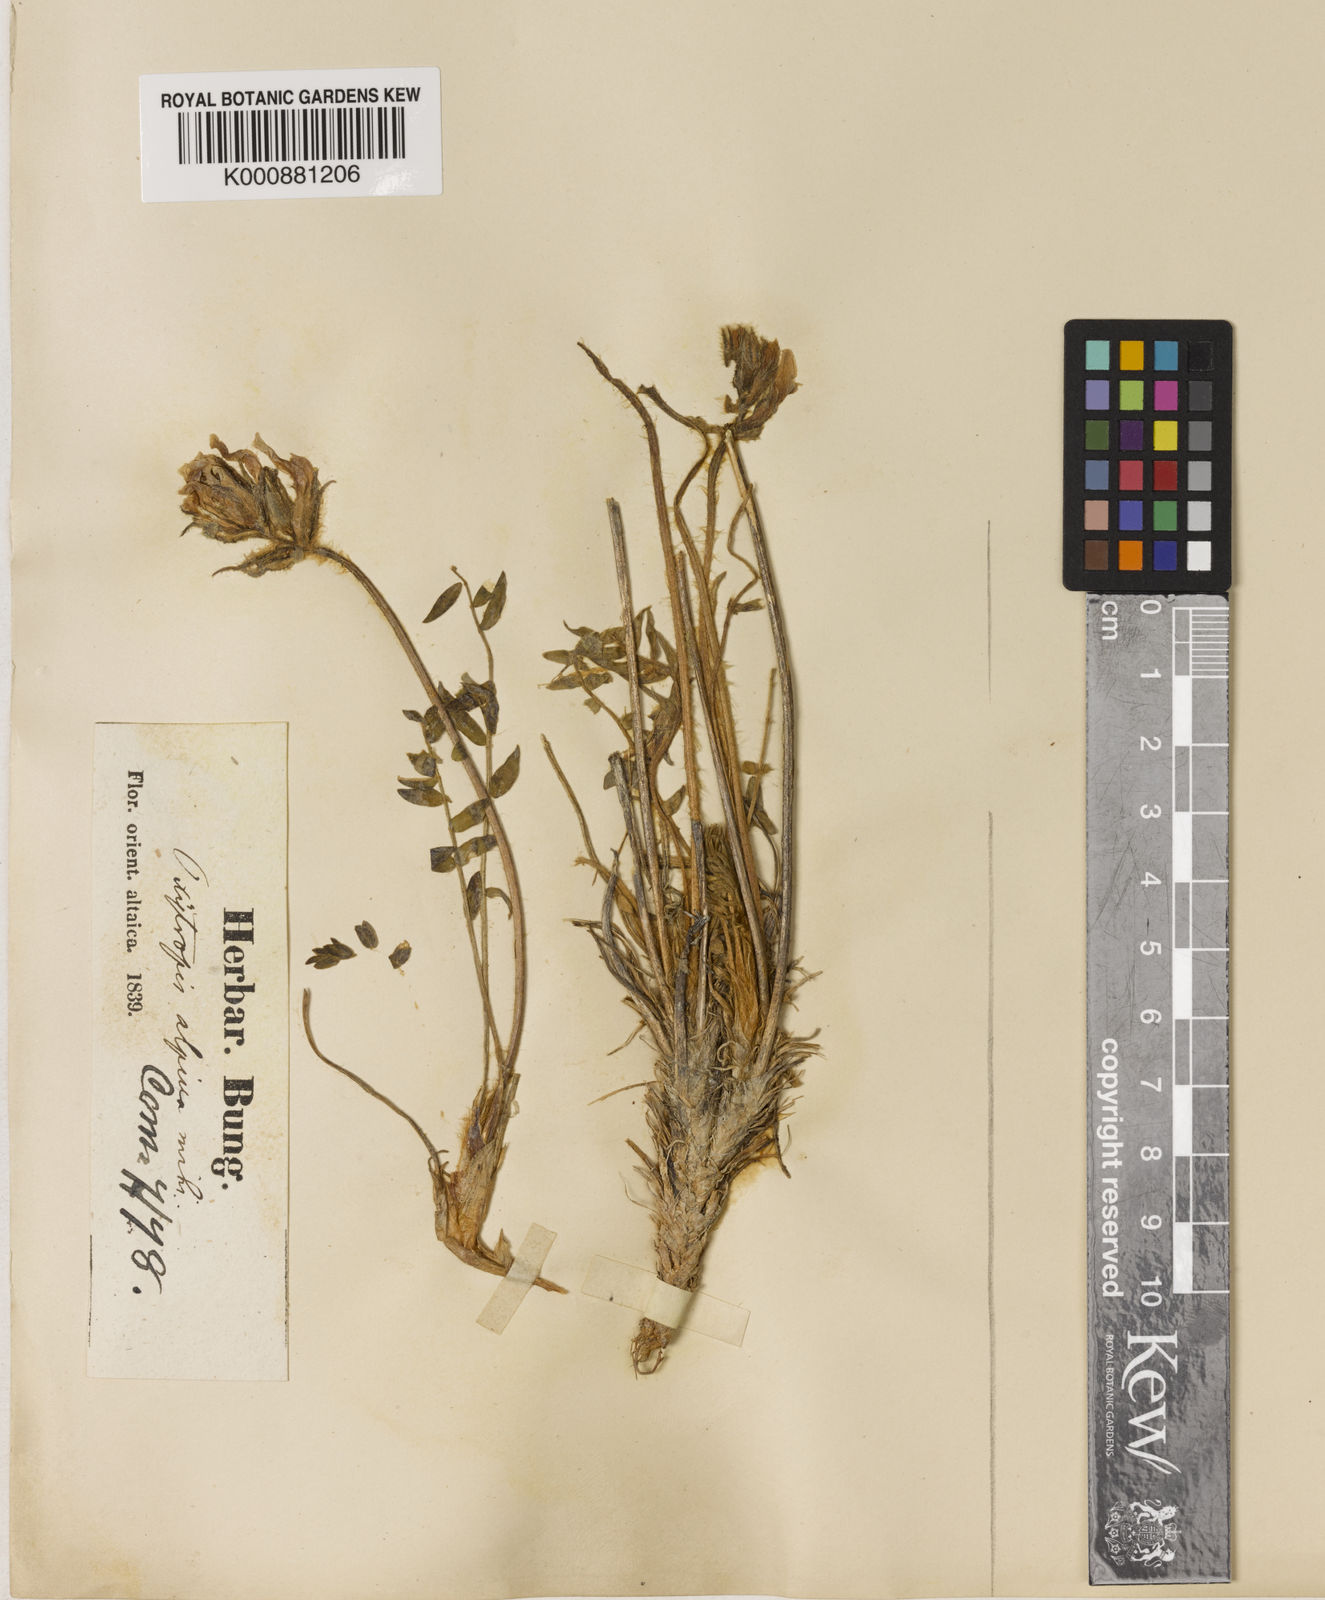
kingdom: Plantae
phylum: Tracheophyta
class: Magnoliopsida
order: Fabales
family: Fabaceae
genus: Oxytropis
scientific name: Oxytropis alpina
